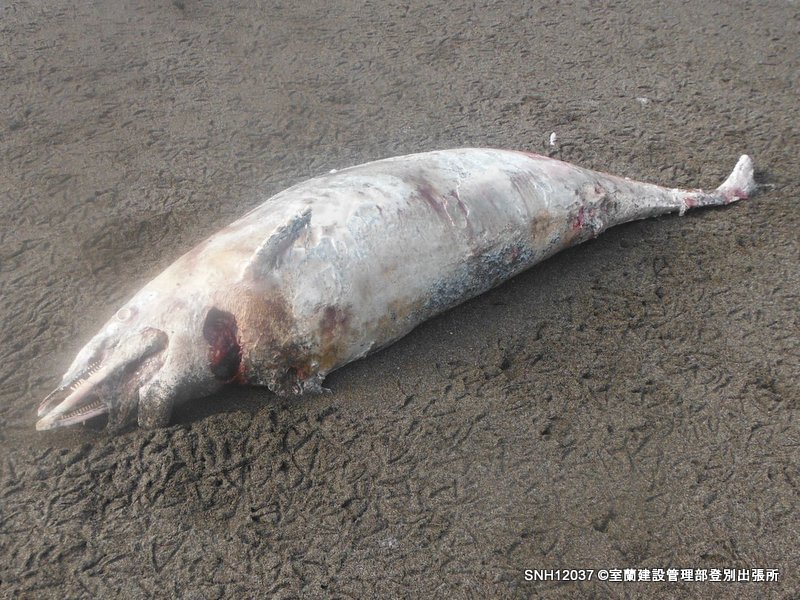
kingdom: Animalia
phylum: Chordata
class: Mammalia
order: Cetacea
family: Delphinidae
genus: Lagenorhynchus
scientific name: Lagenorhynchus obliquidens
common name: Pacific white-sided dolphin
